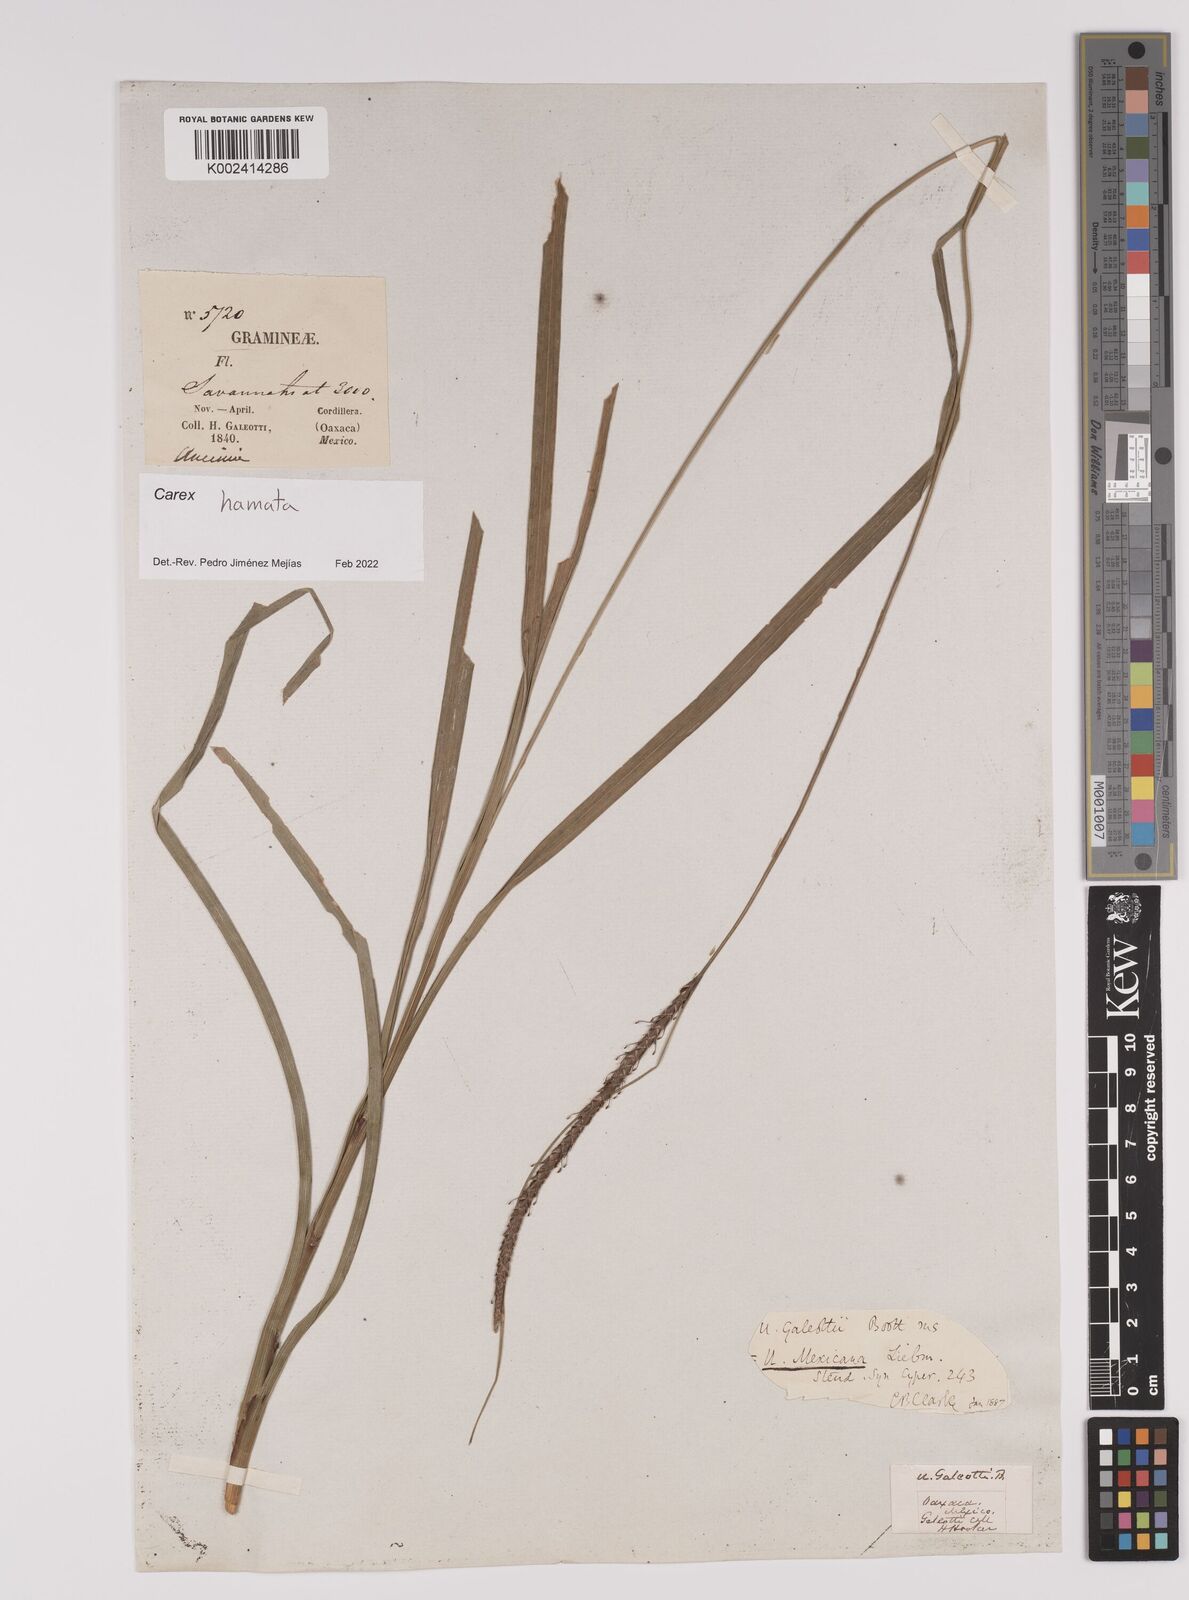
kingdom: Plantae
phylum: Tracheophyta
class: Liliopsida
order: Poales
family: Cyperaceae
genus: Carex
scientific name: Carex hamata
